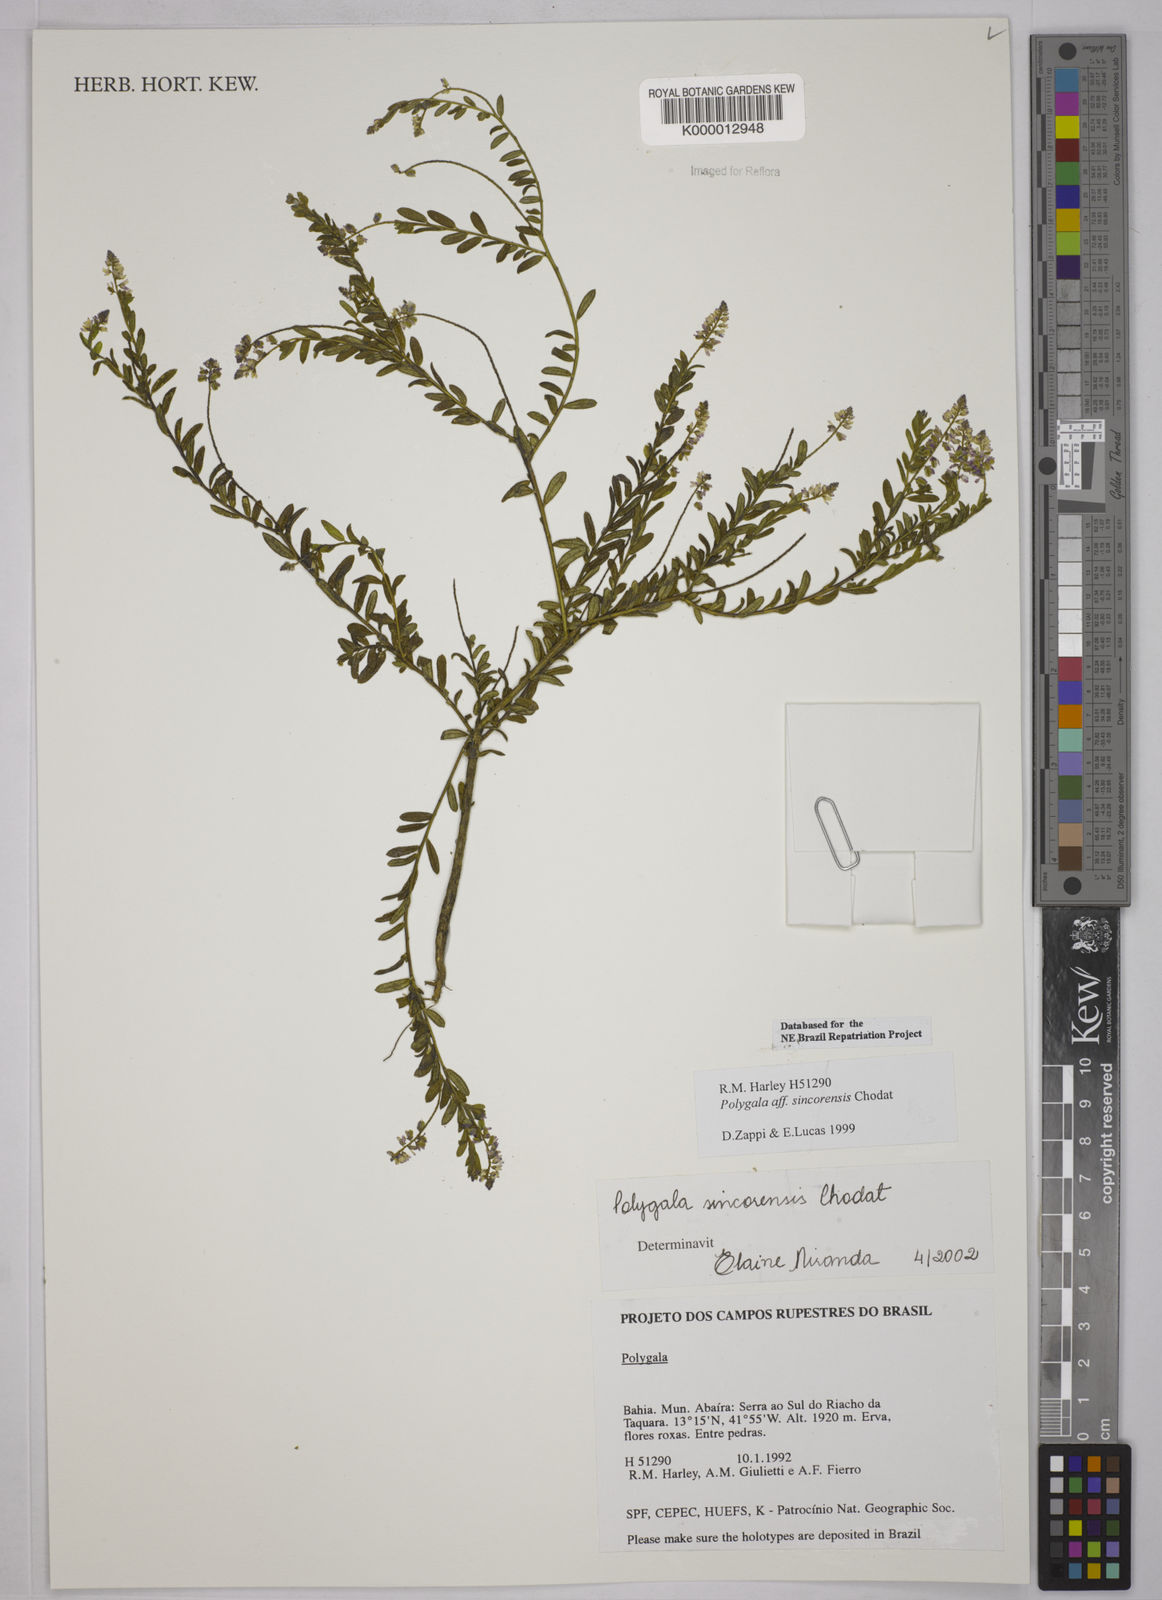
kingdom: Plantae
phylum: Tracheophyta
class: Magnoliopsida
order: Fabales
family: Polygalaceae
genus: Polygala
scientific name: Polygala sincorensis
